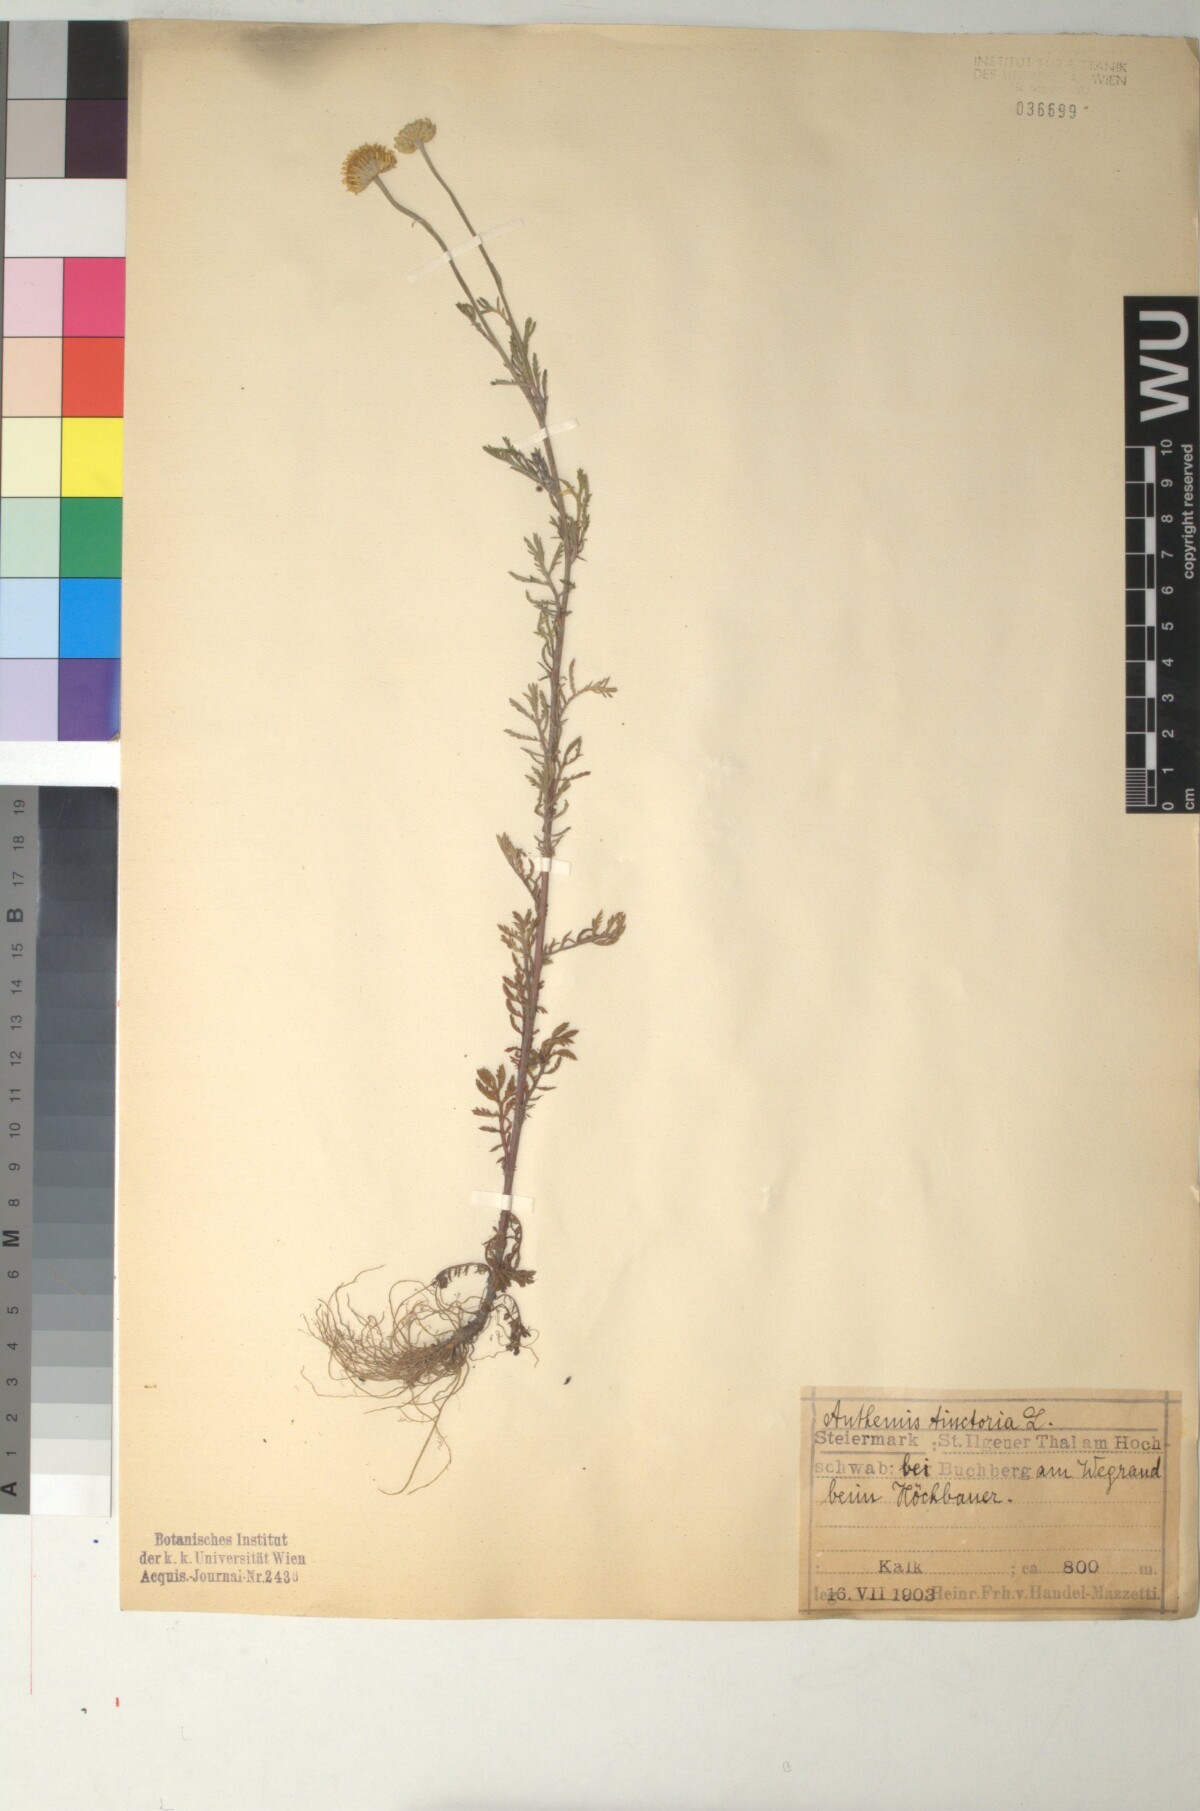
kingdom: Plantae
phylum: Tracheophyta
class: Magnoliopsida
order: Asterales
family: Asteraceae
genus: Cota
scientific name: Cota tinctoria
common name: Golden chamomile
